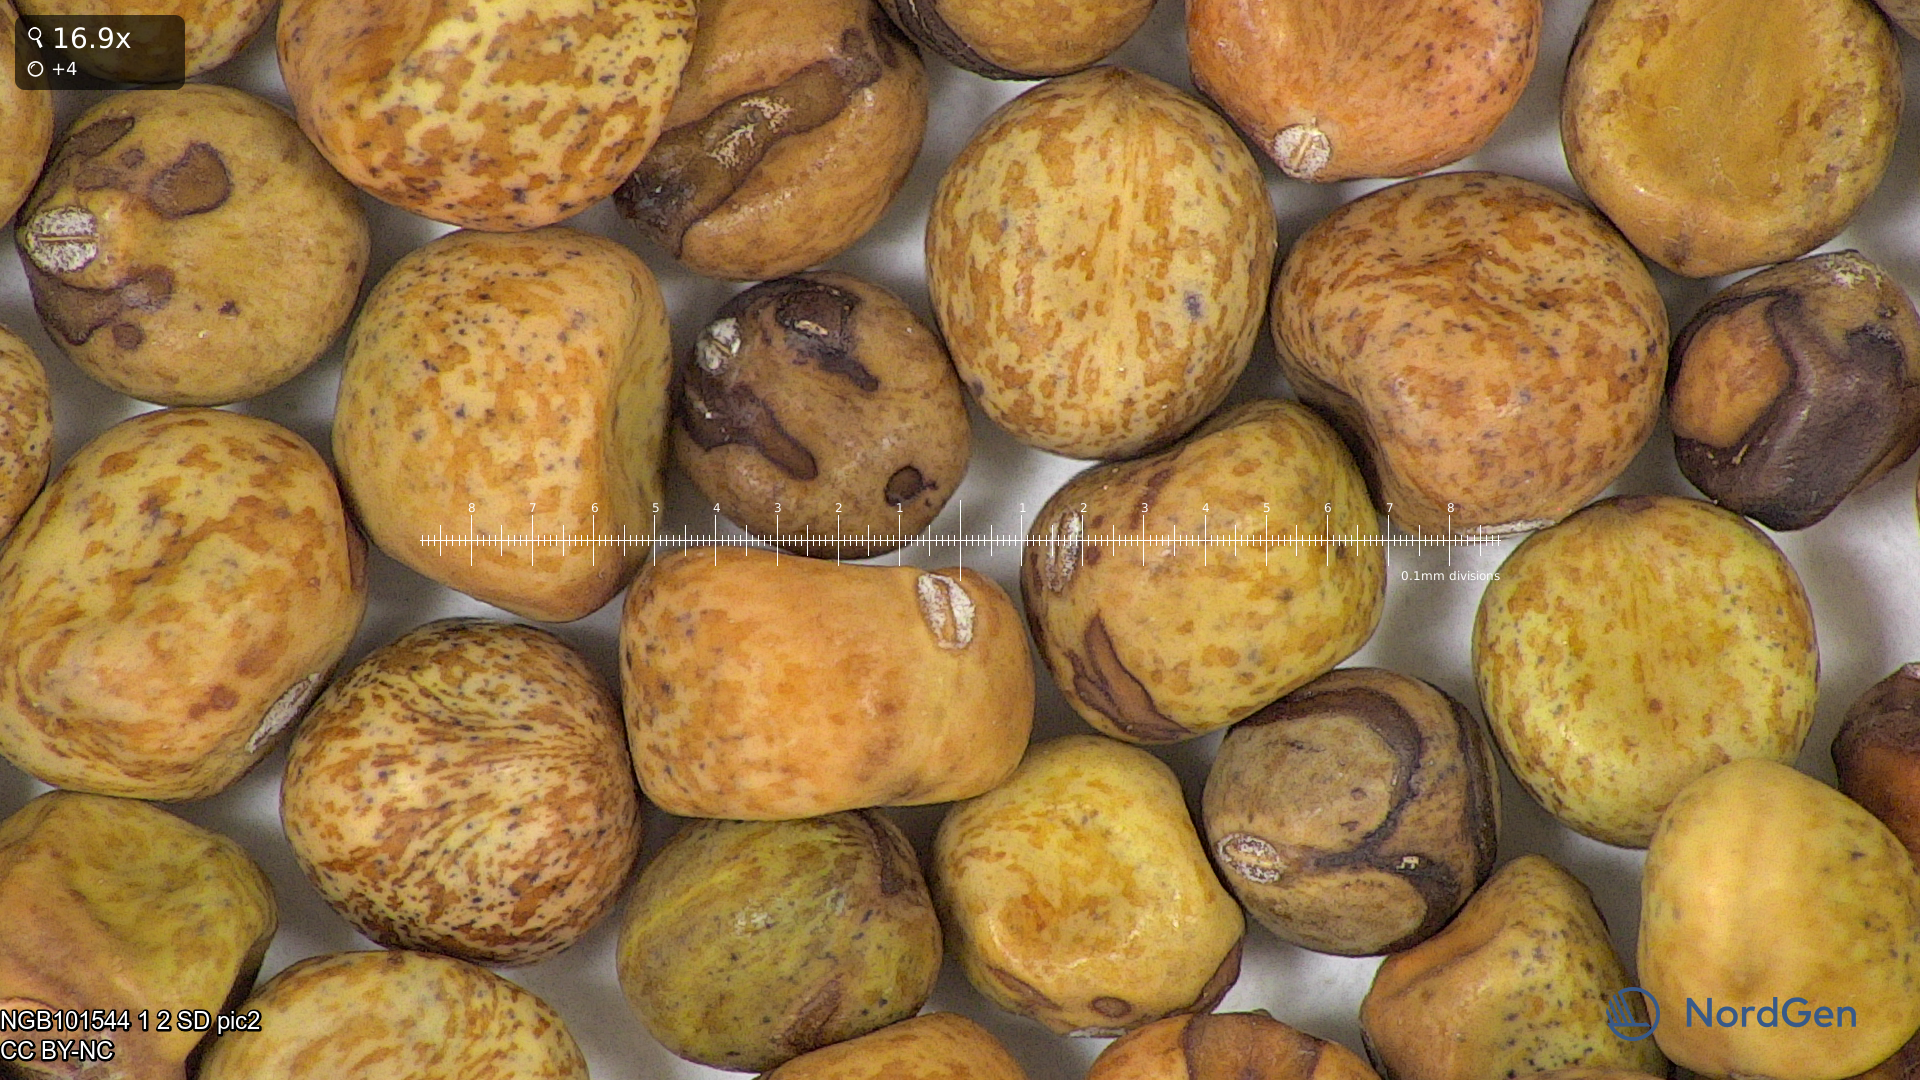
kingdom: Plantae
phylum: Tracheophyta
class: Magnoliopsida
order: Fabales
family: Fabaceae
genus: Lathyrus
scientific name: Lathyrus oleraceus
